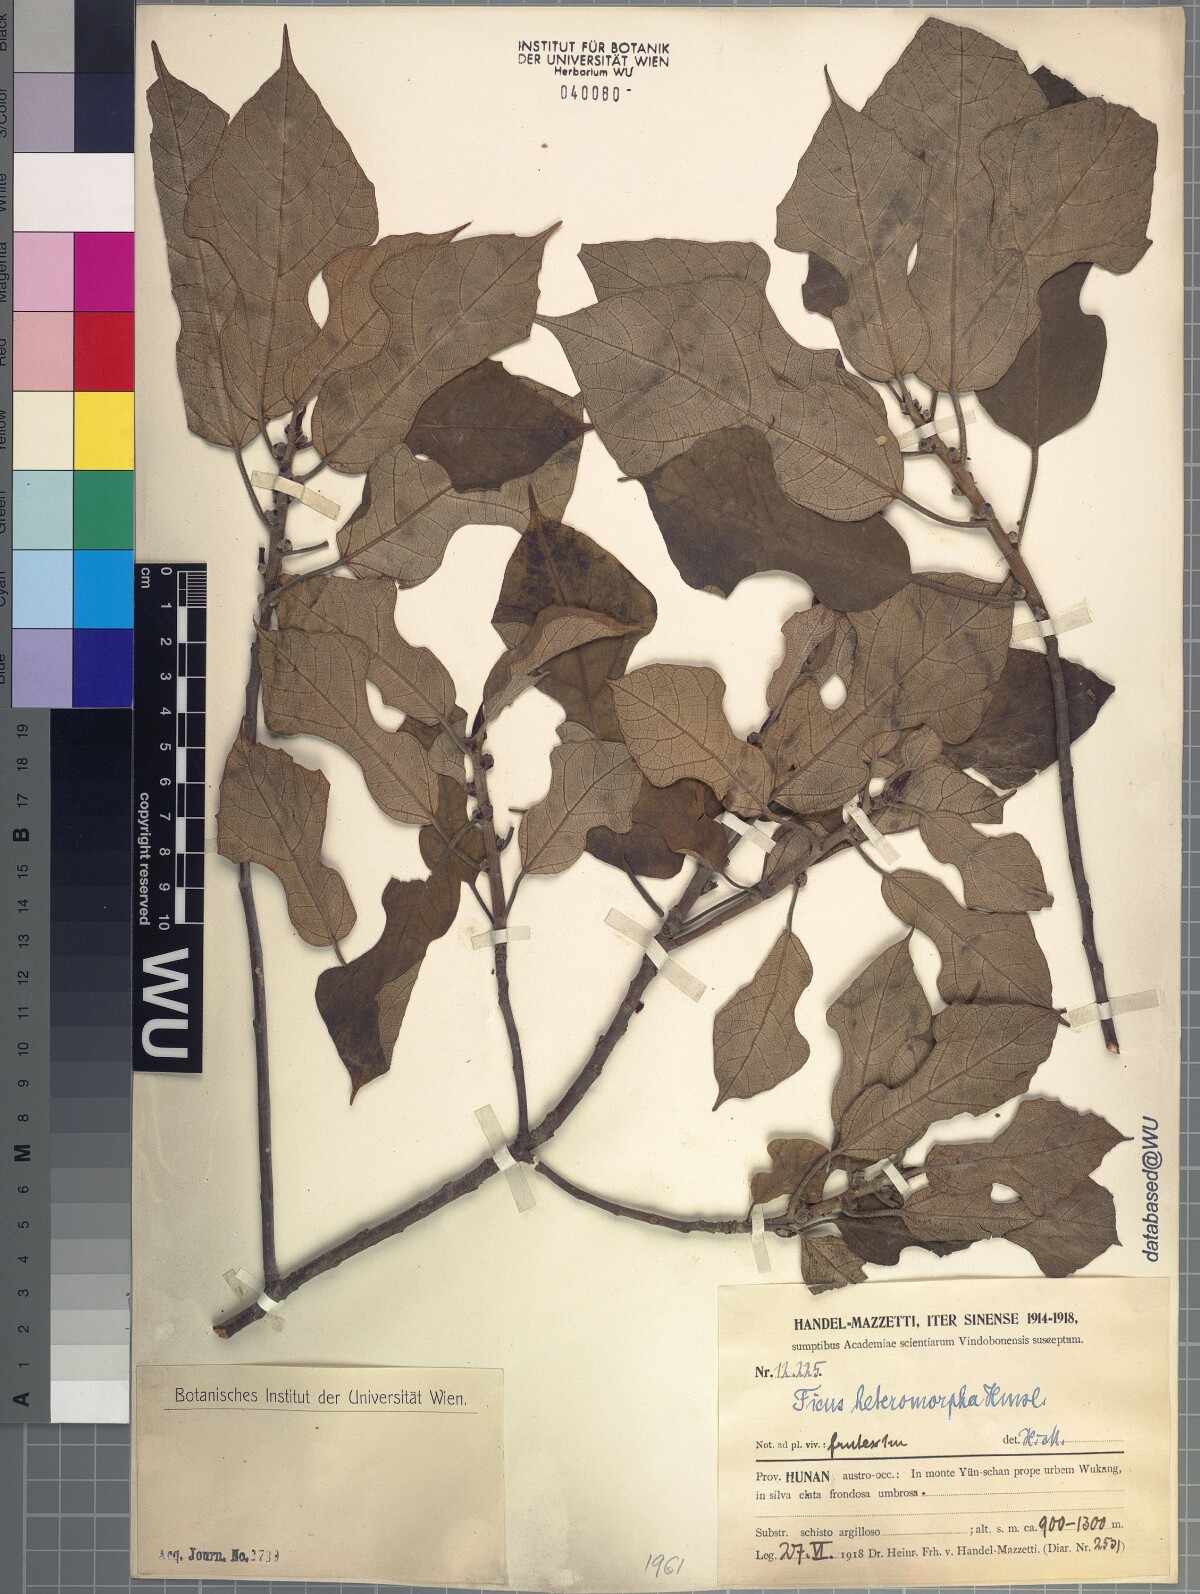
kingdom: Plantae
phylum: Tracheophyta
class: Magnoliopsida
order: Rosales
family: Moraceae
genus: Ficus
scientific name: Ficus heteromorpha
